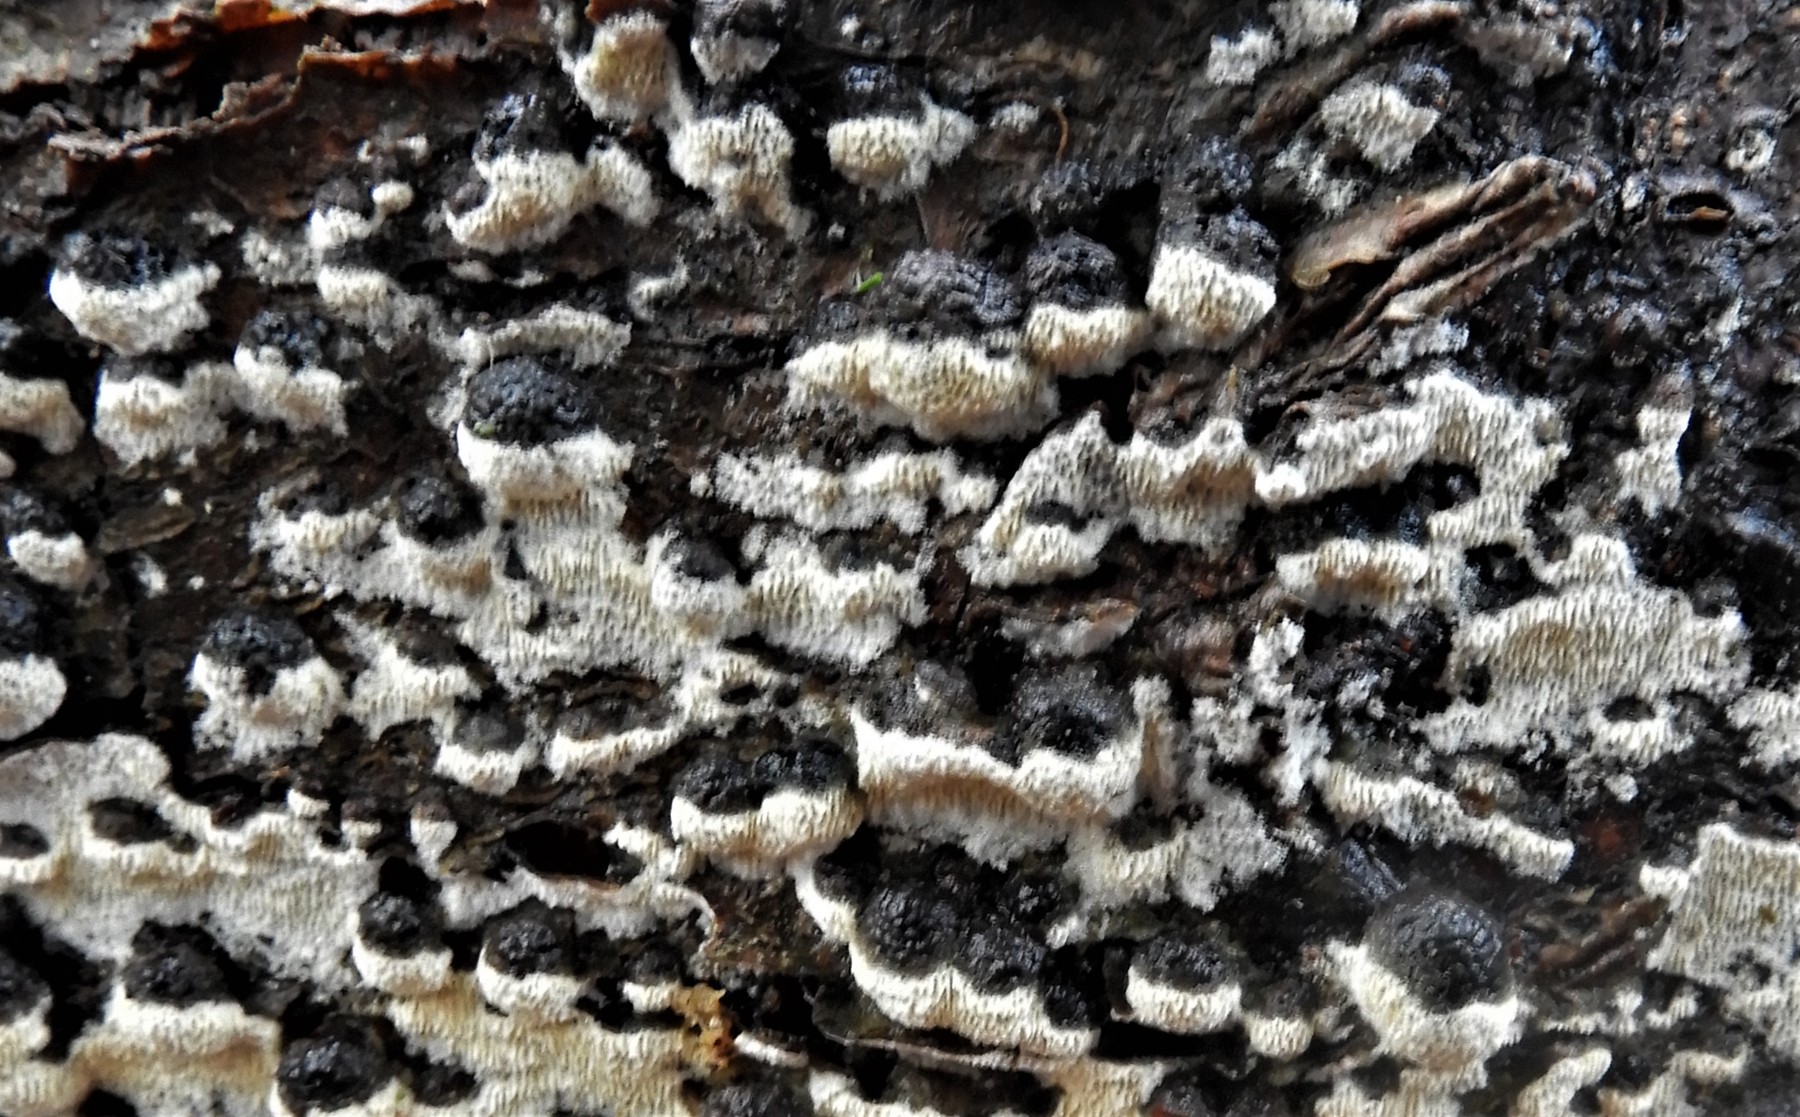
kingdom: Fungi
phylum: Basidiomycota
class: Agaricomycetes
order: Hymenochaetales
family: Schizoporaceae
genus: Schizopora
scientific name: Schizopora paradoxa
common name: hvid tandsvamp
